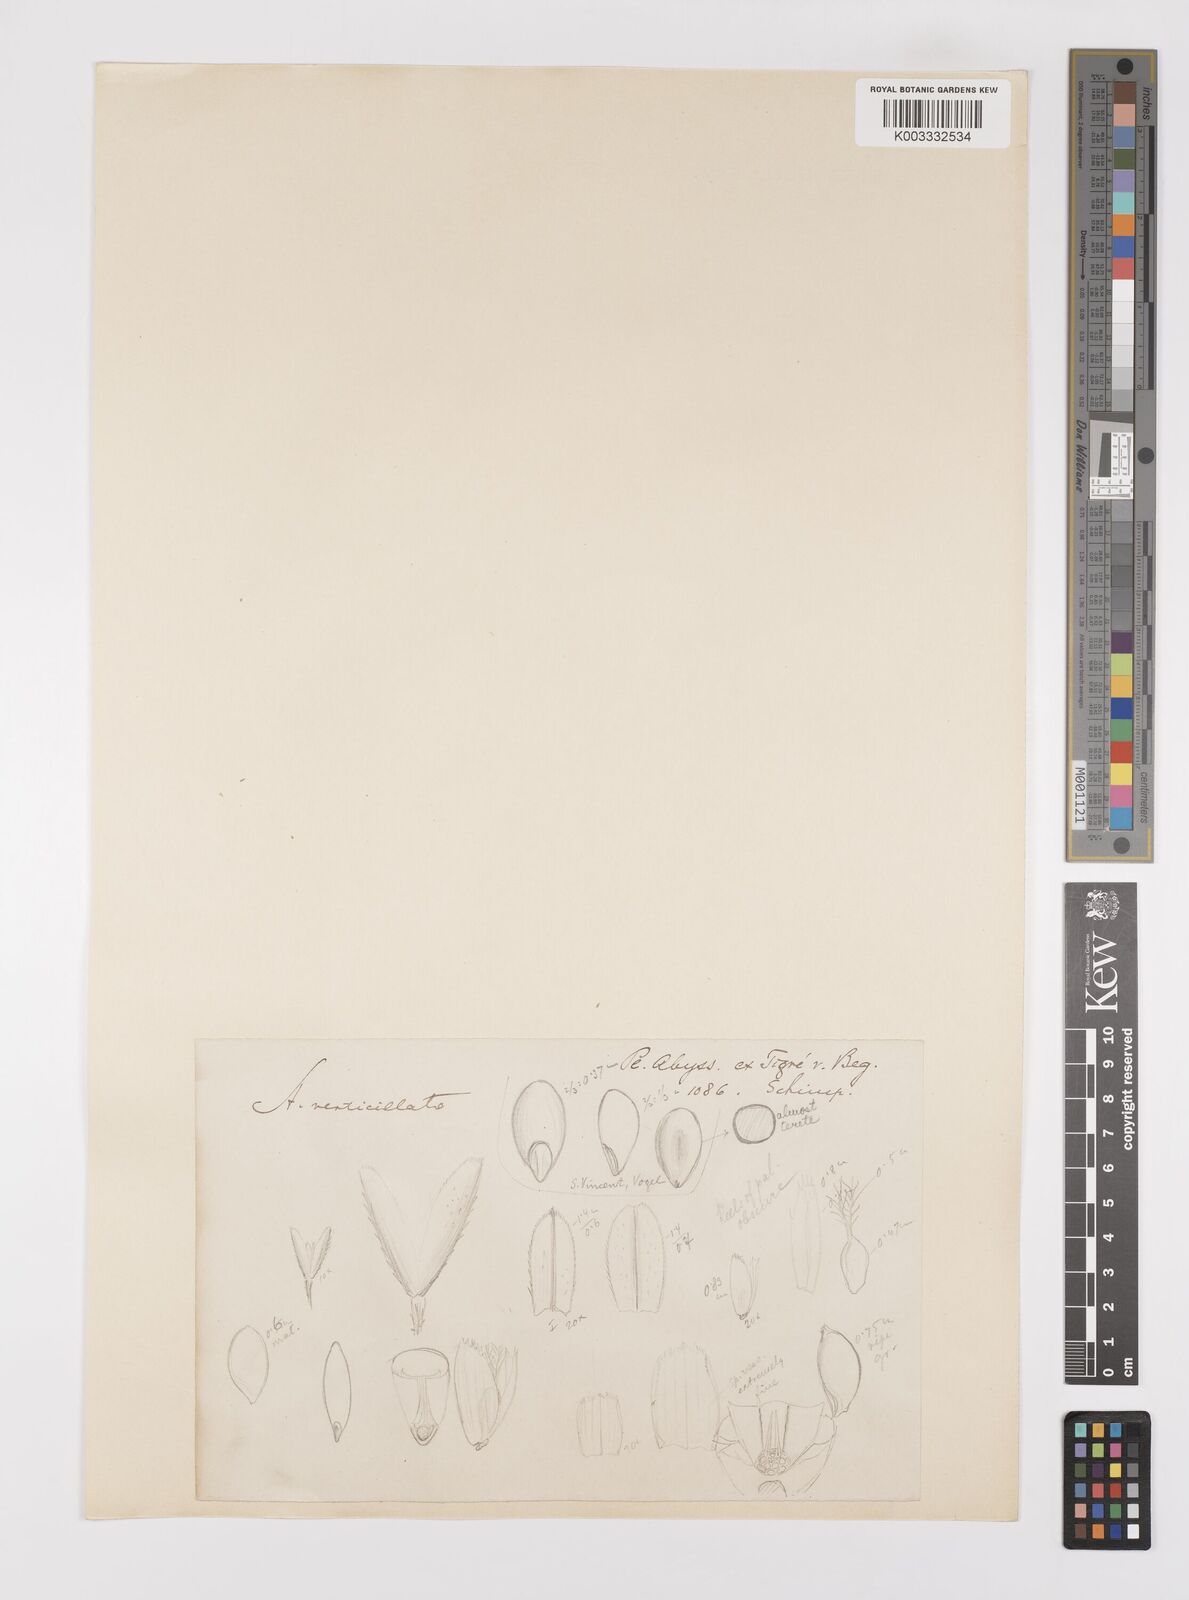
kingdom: Plantae
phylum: Tracheophyta
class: Liliopsida
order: Poales
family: Poaceae
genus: Polypogon
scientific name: Polypogon viridis
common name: Water bent
